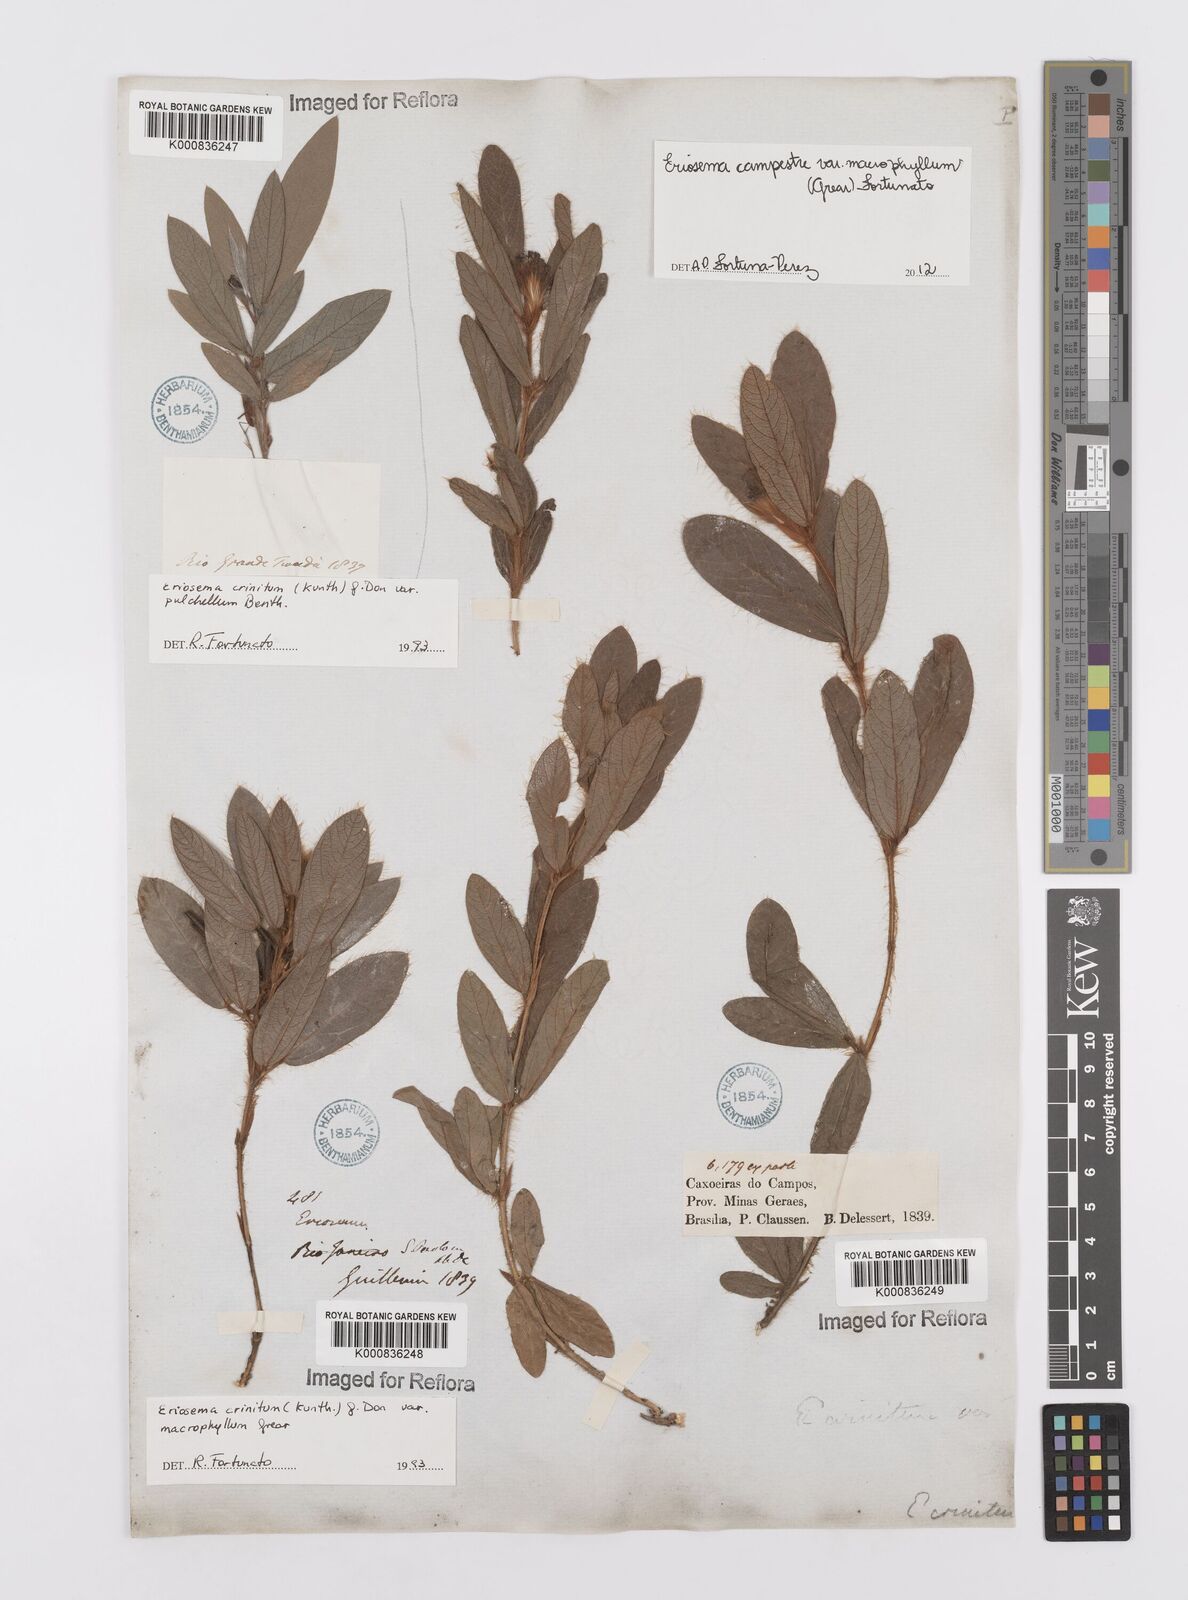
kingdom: Plantae
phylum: Tracheophyta
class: Magnoliopsida
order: Fabales
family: Fabaceae
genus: Eriosema
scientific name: Eriosema crinitum
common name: Sand pea
